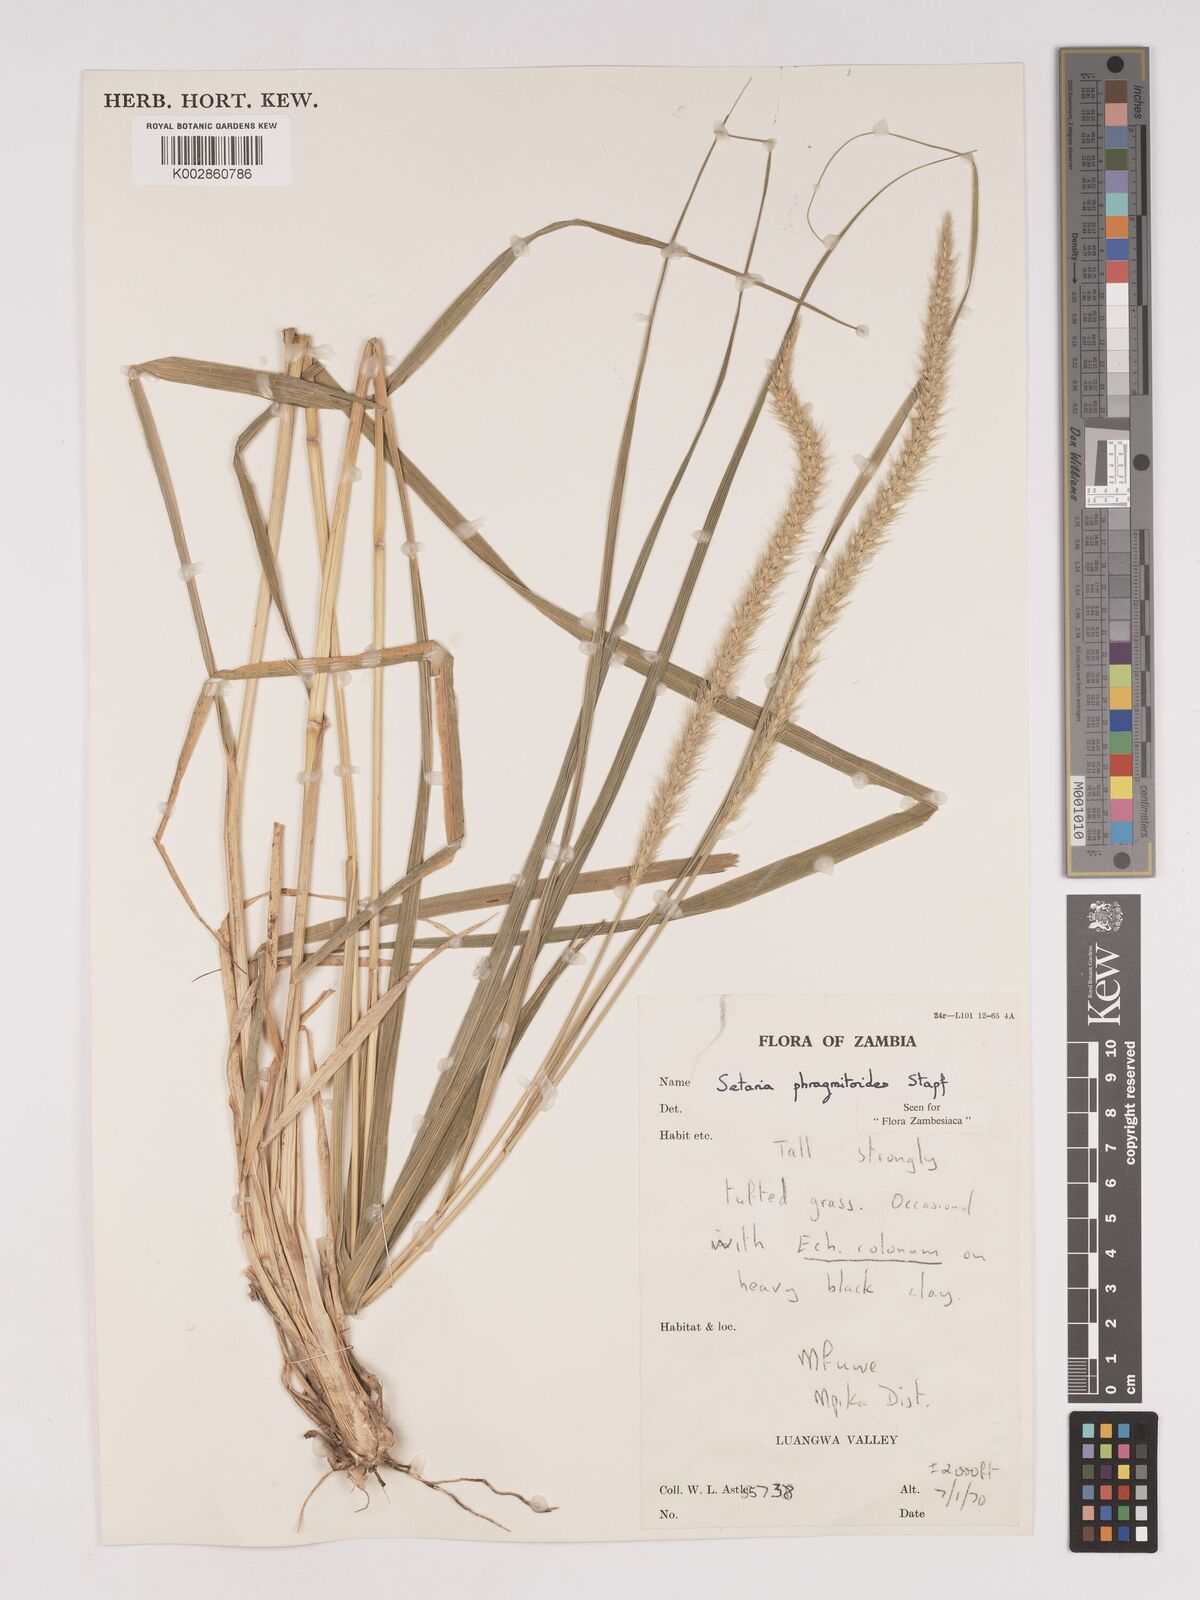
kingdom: Plantae
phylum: Tracheophyta
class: Liliopsida
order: Poales
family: Poaceae
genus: Setaria
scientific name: Setaria incrassata
